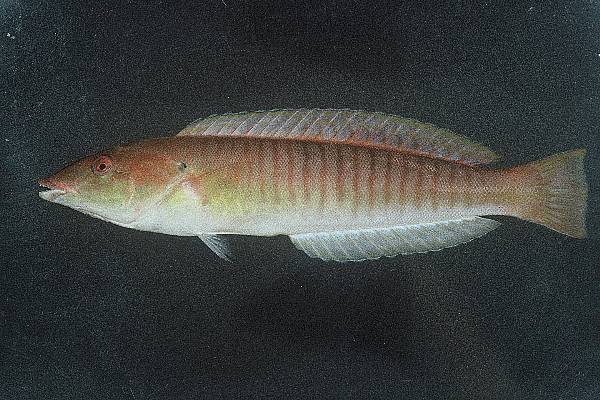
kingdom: Animalia
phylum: Chordata
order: Perciformes
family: Labridae
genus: Hologymnosus
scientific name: Hologymnosus doliatus
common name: Pastel ringwrasse
